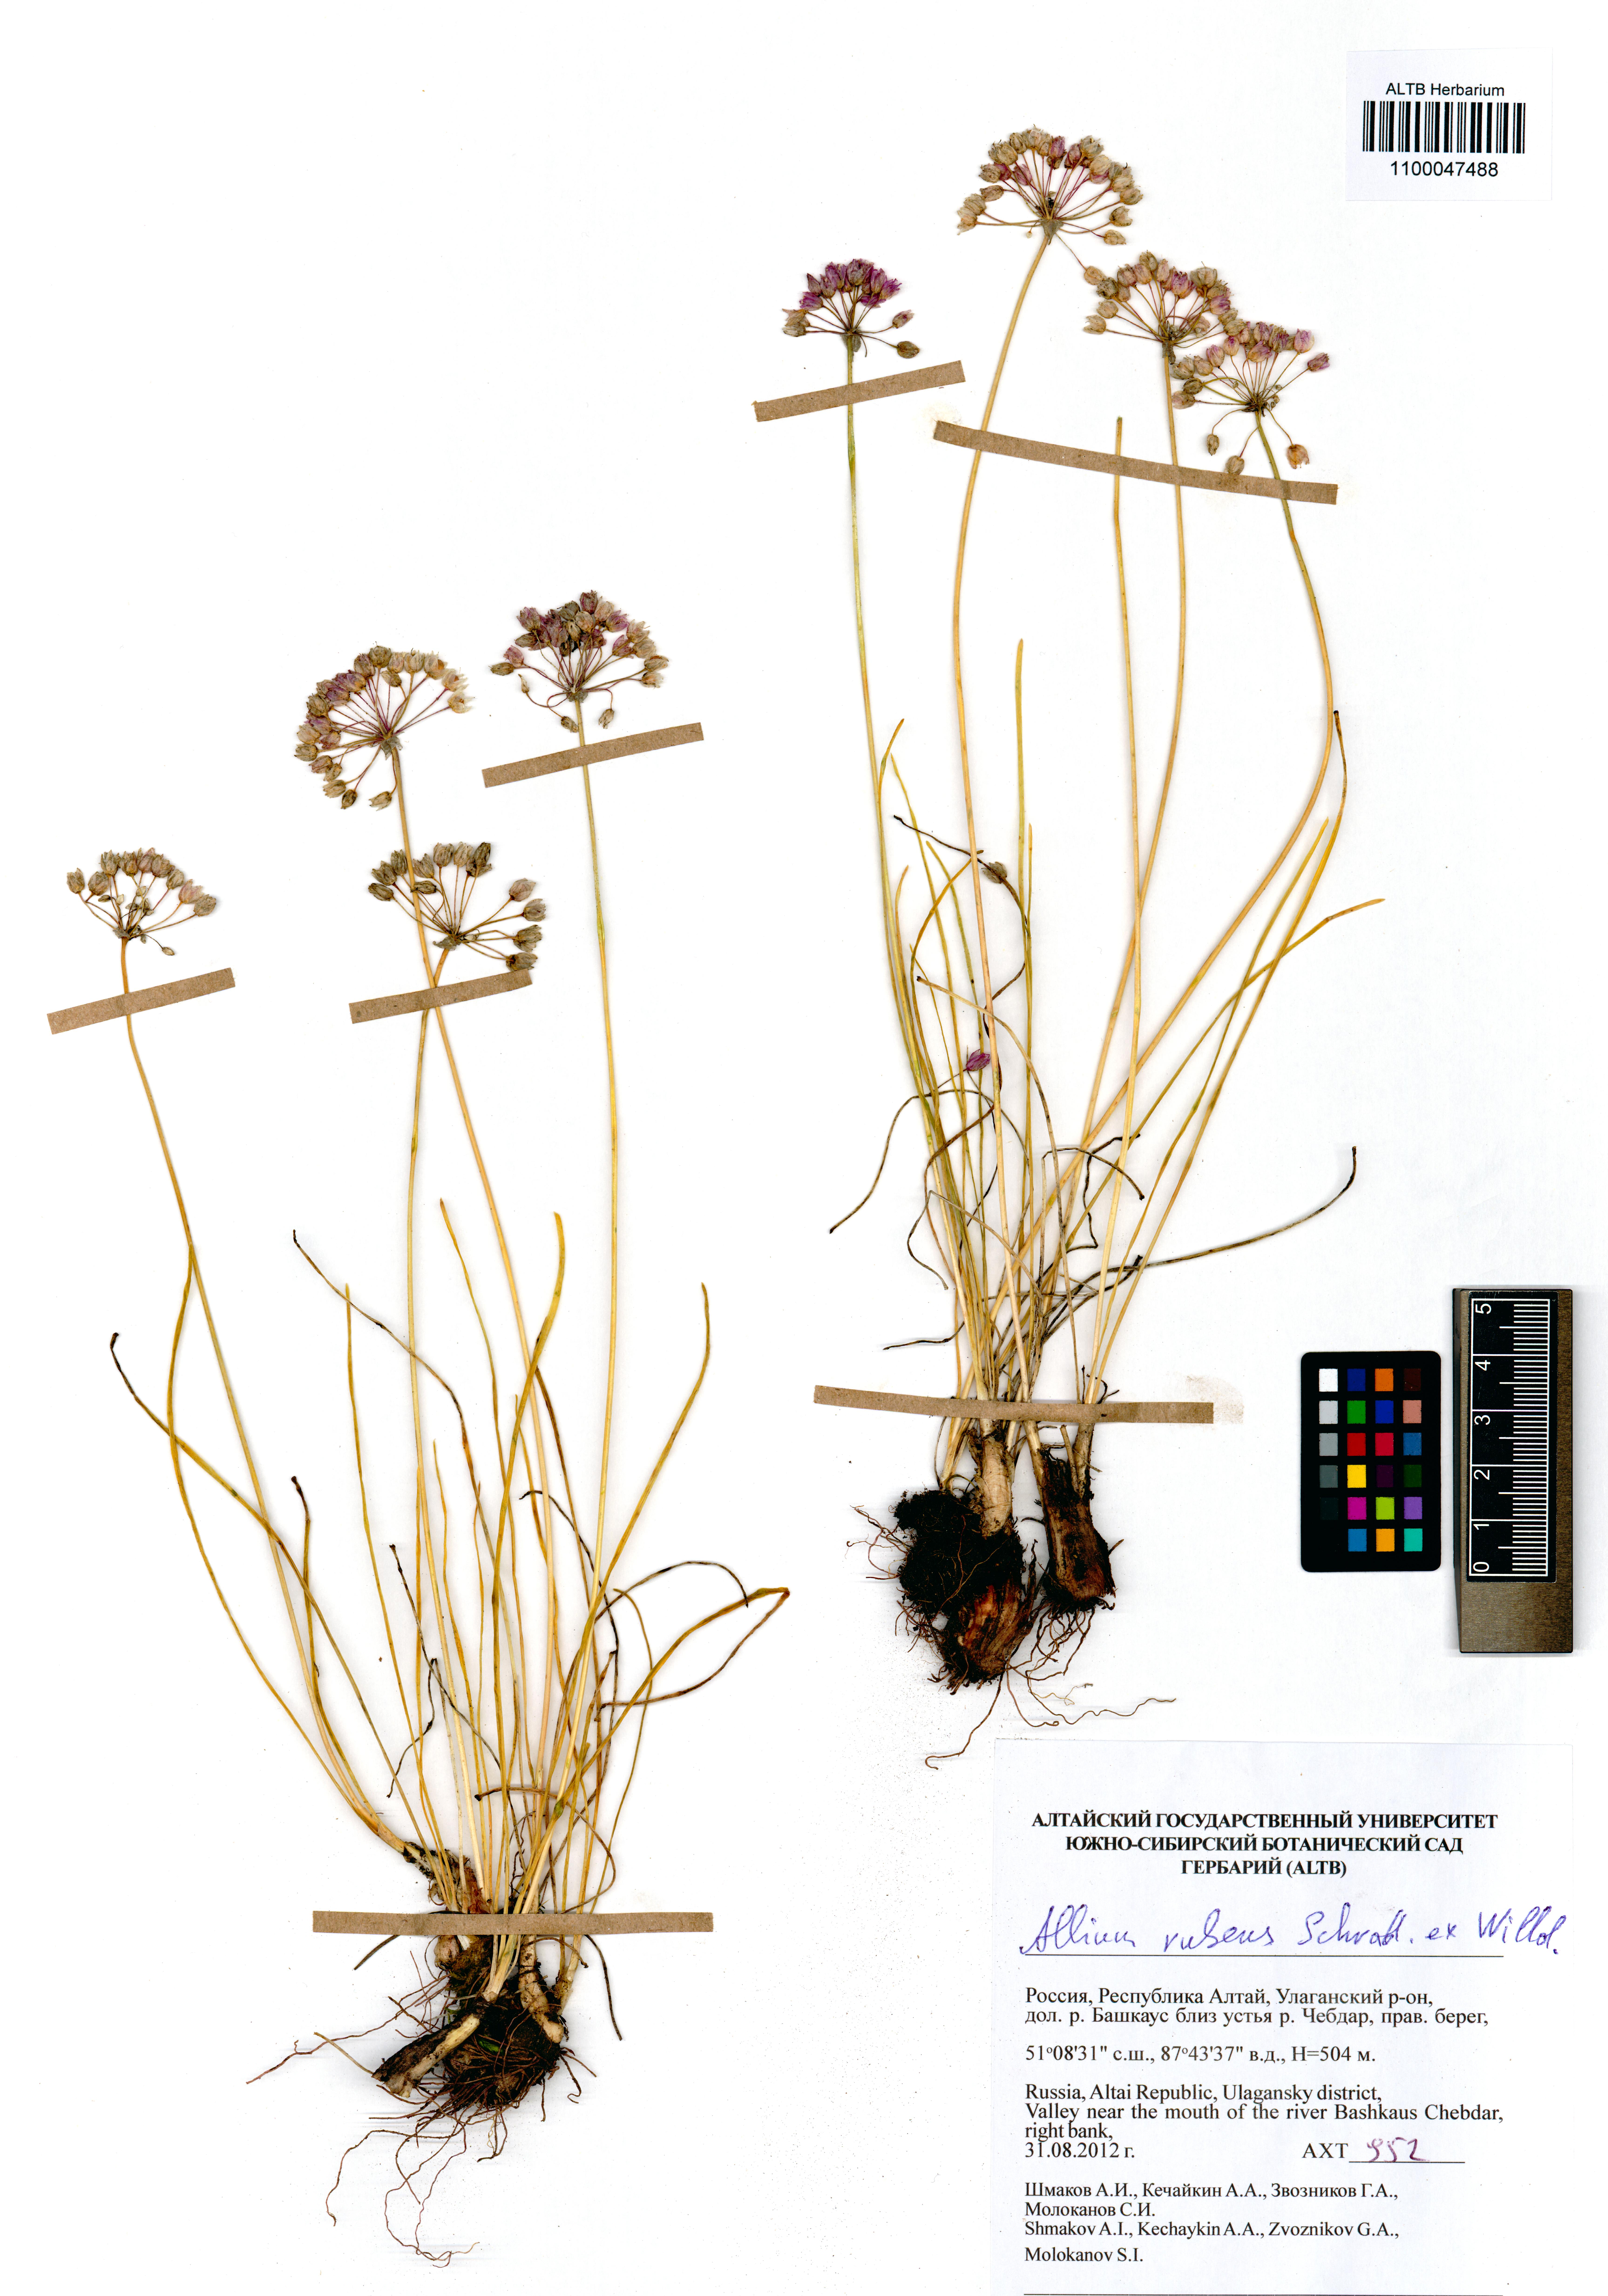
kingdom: Plantae
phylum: Tracheophyta
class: Liliopsida
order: Asparagales
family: Amaryllidaceae
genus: Allium
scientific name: Allium rubens
